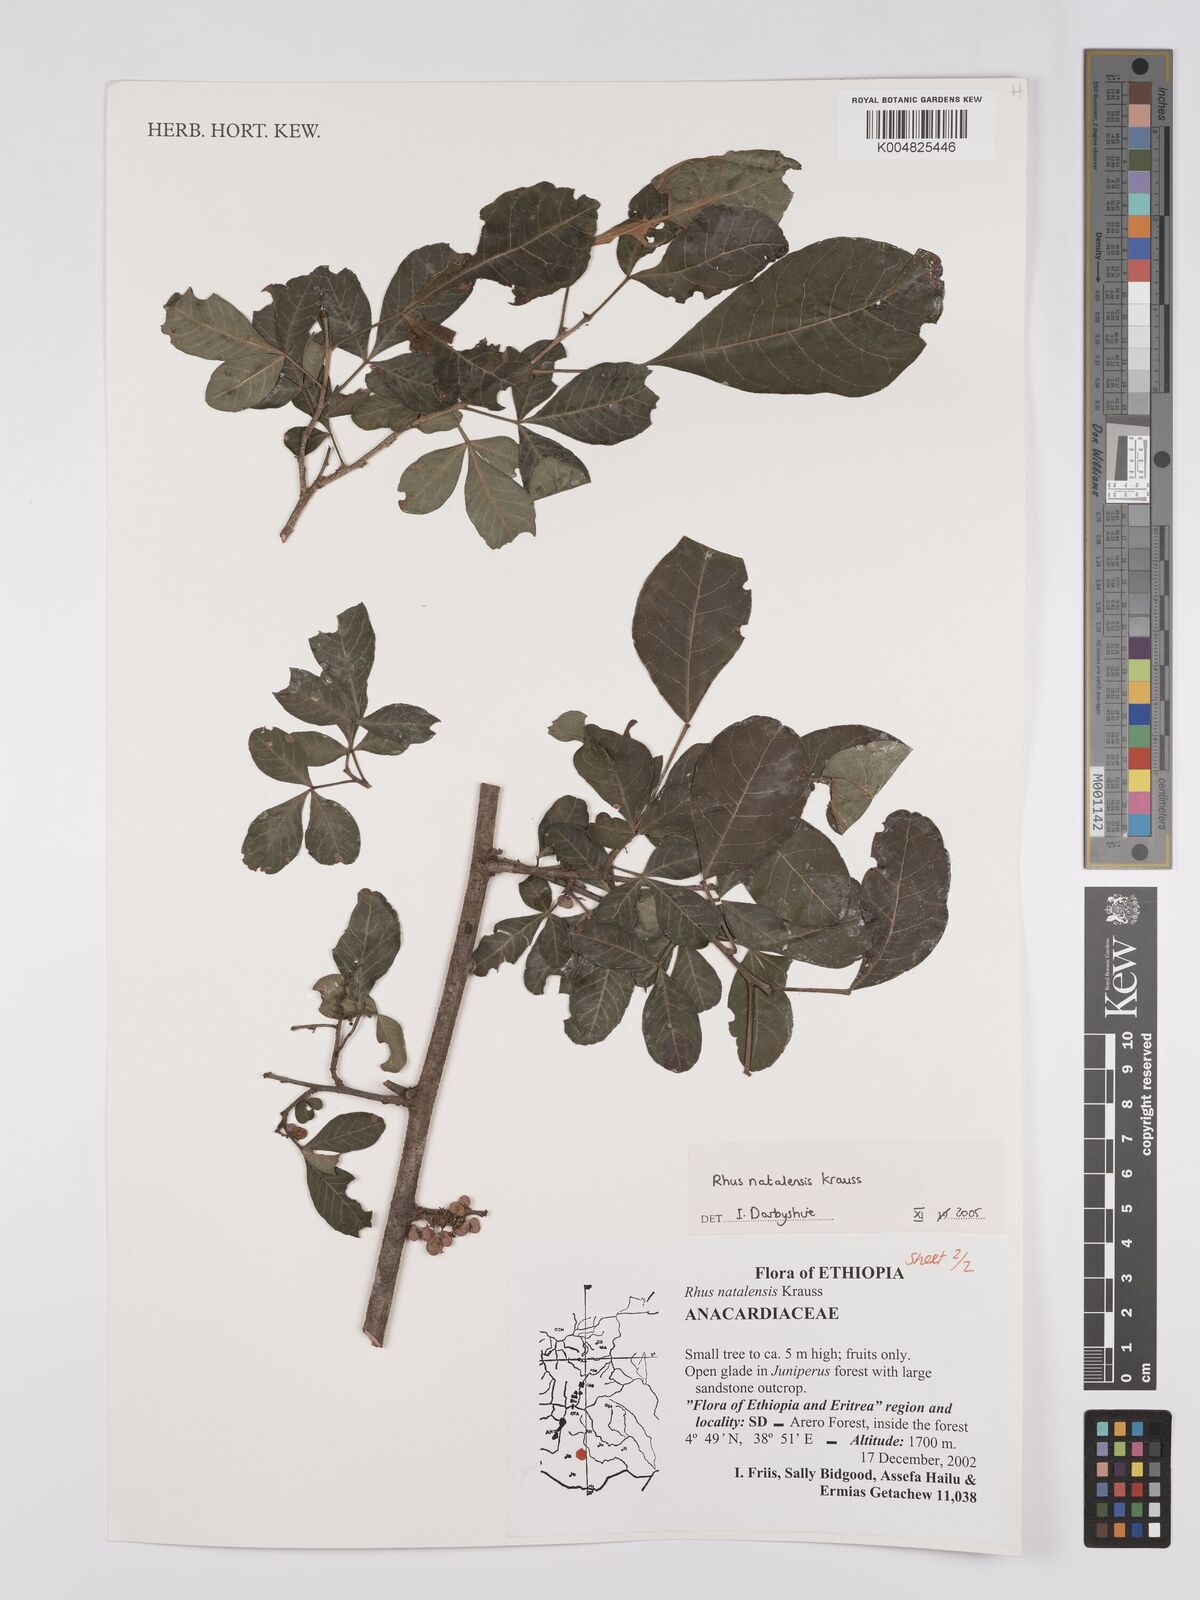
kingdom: Plantae
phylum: Tracheophyta
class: Magnoliopsida
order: Sapindales
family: Anacardiaceae
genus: Searsia
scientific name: Searsia natalensis
